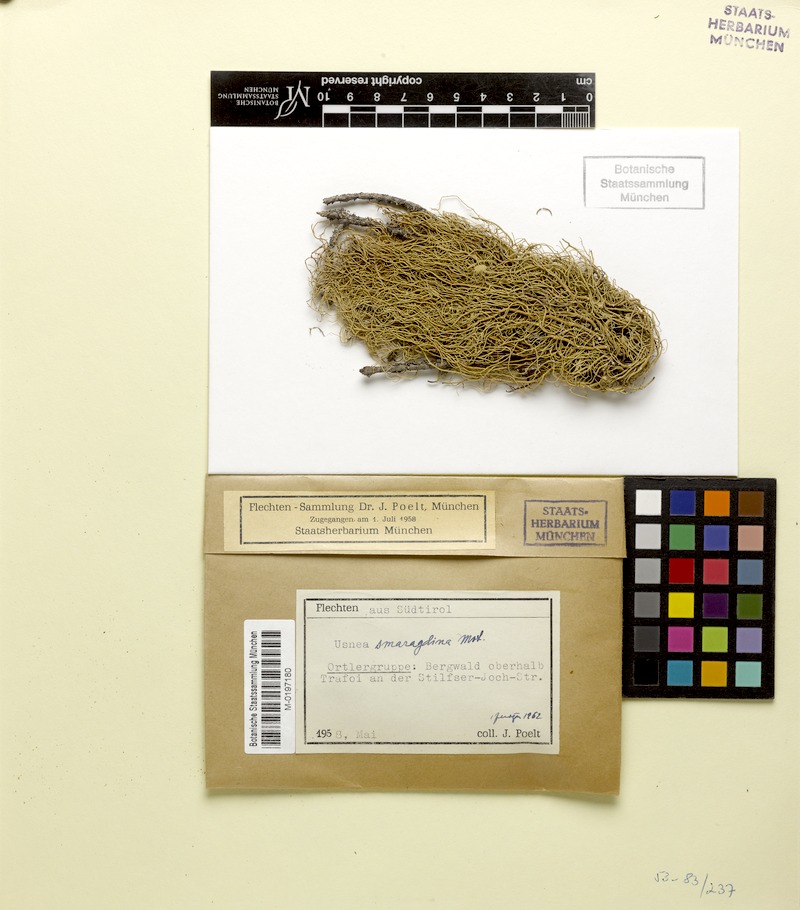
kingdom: Fungi
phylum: Ascomycota
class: Lecanoromycetes
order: Lecanorales
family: Parmeliaceae
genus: Usnea
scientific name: Usnea intermedia
